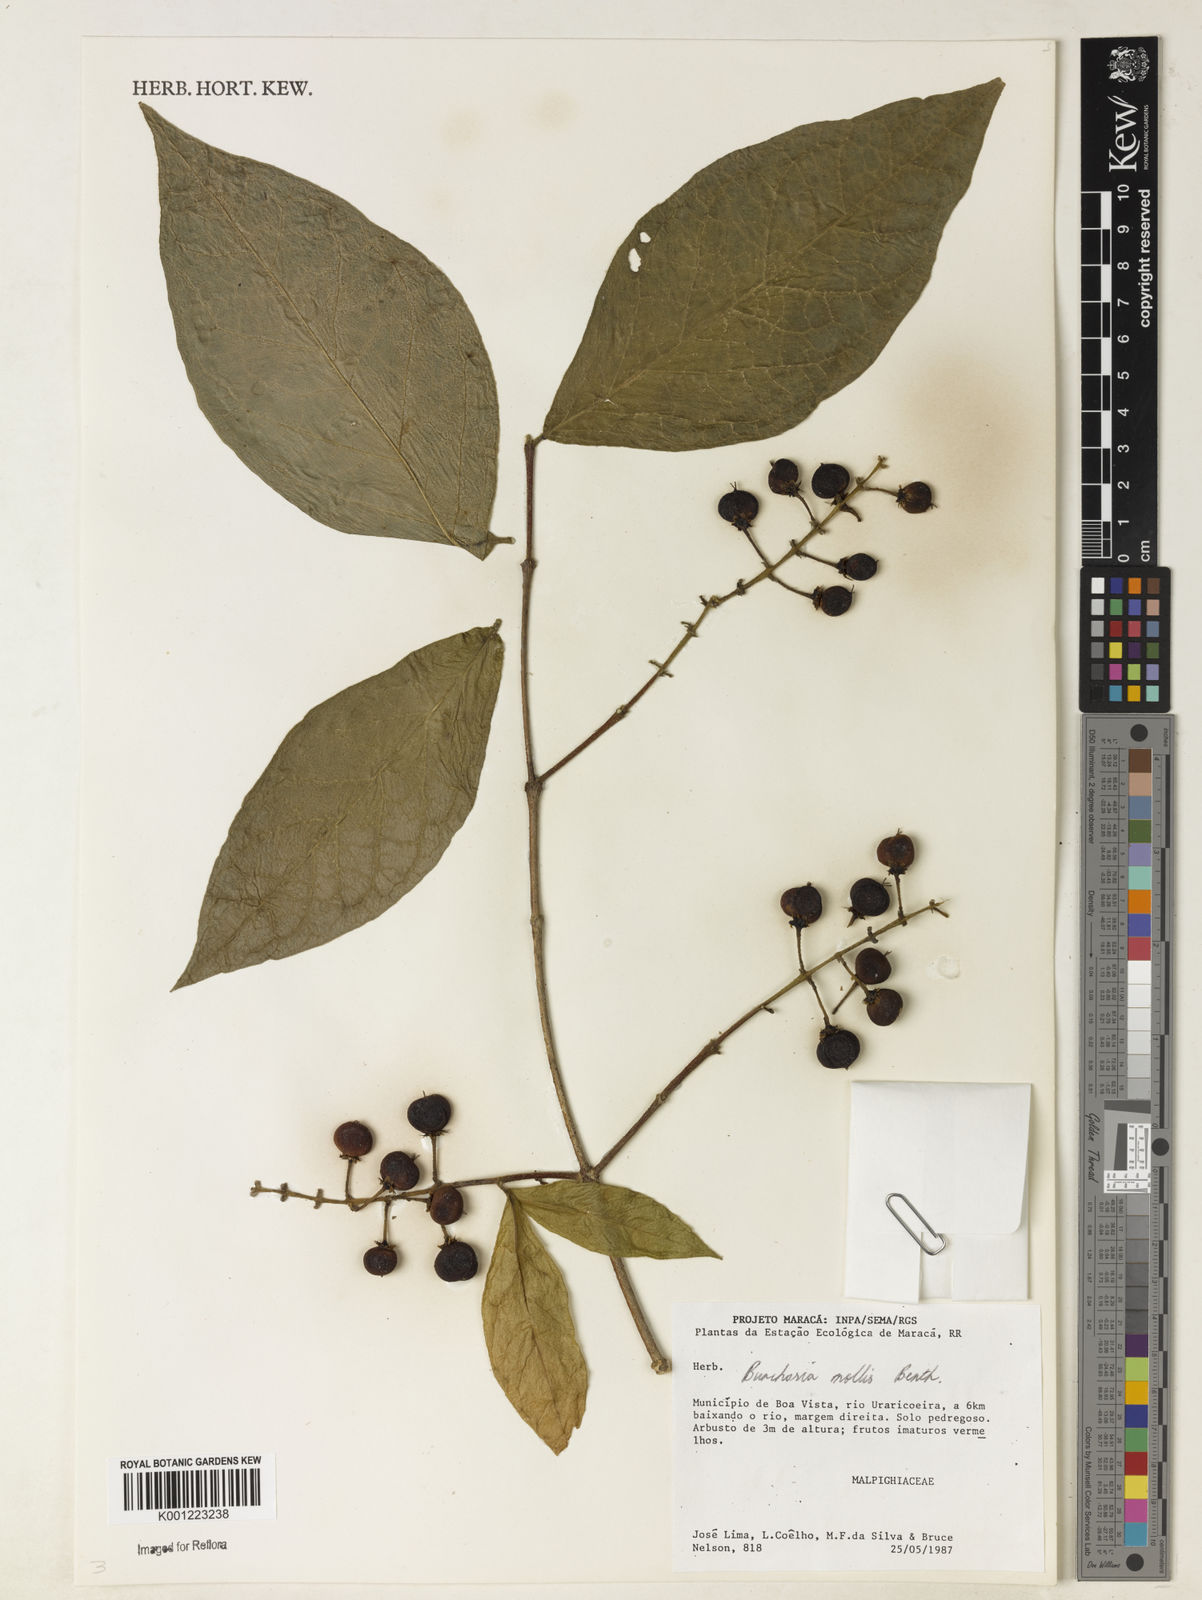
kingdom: Plantae
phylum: Tracheophyta
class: Magnoliopsida
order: Malpighiales
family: Malpighiaceae
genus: Bunchosia
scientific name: Bunchosia mollis
